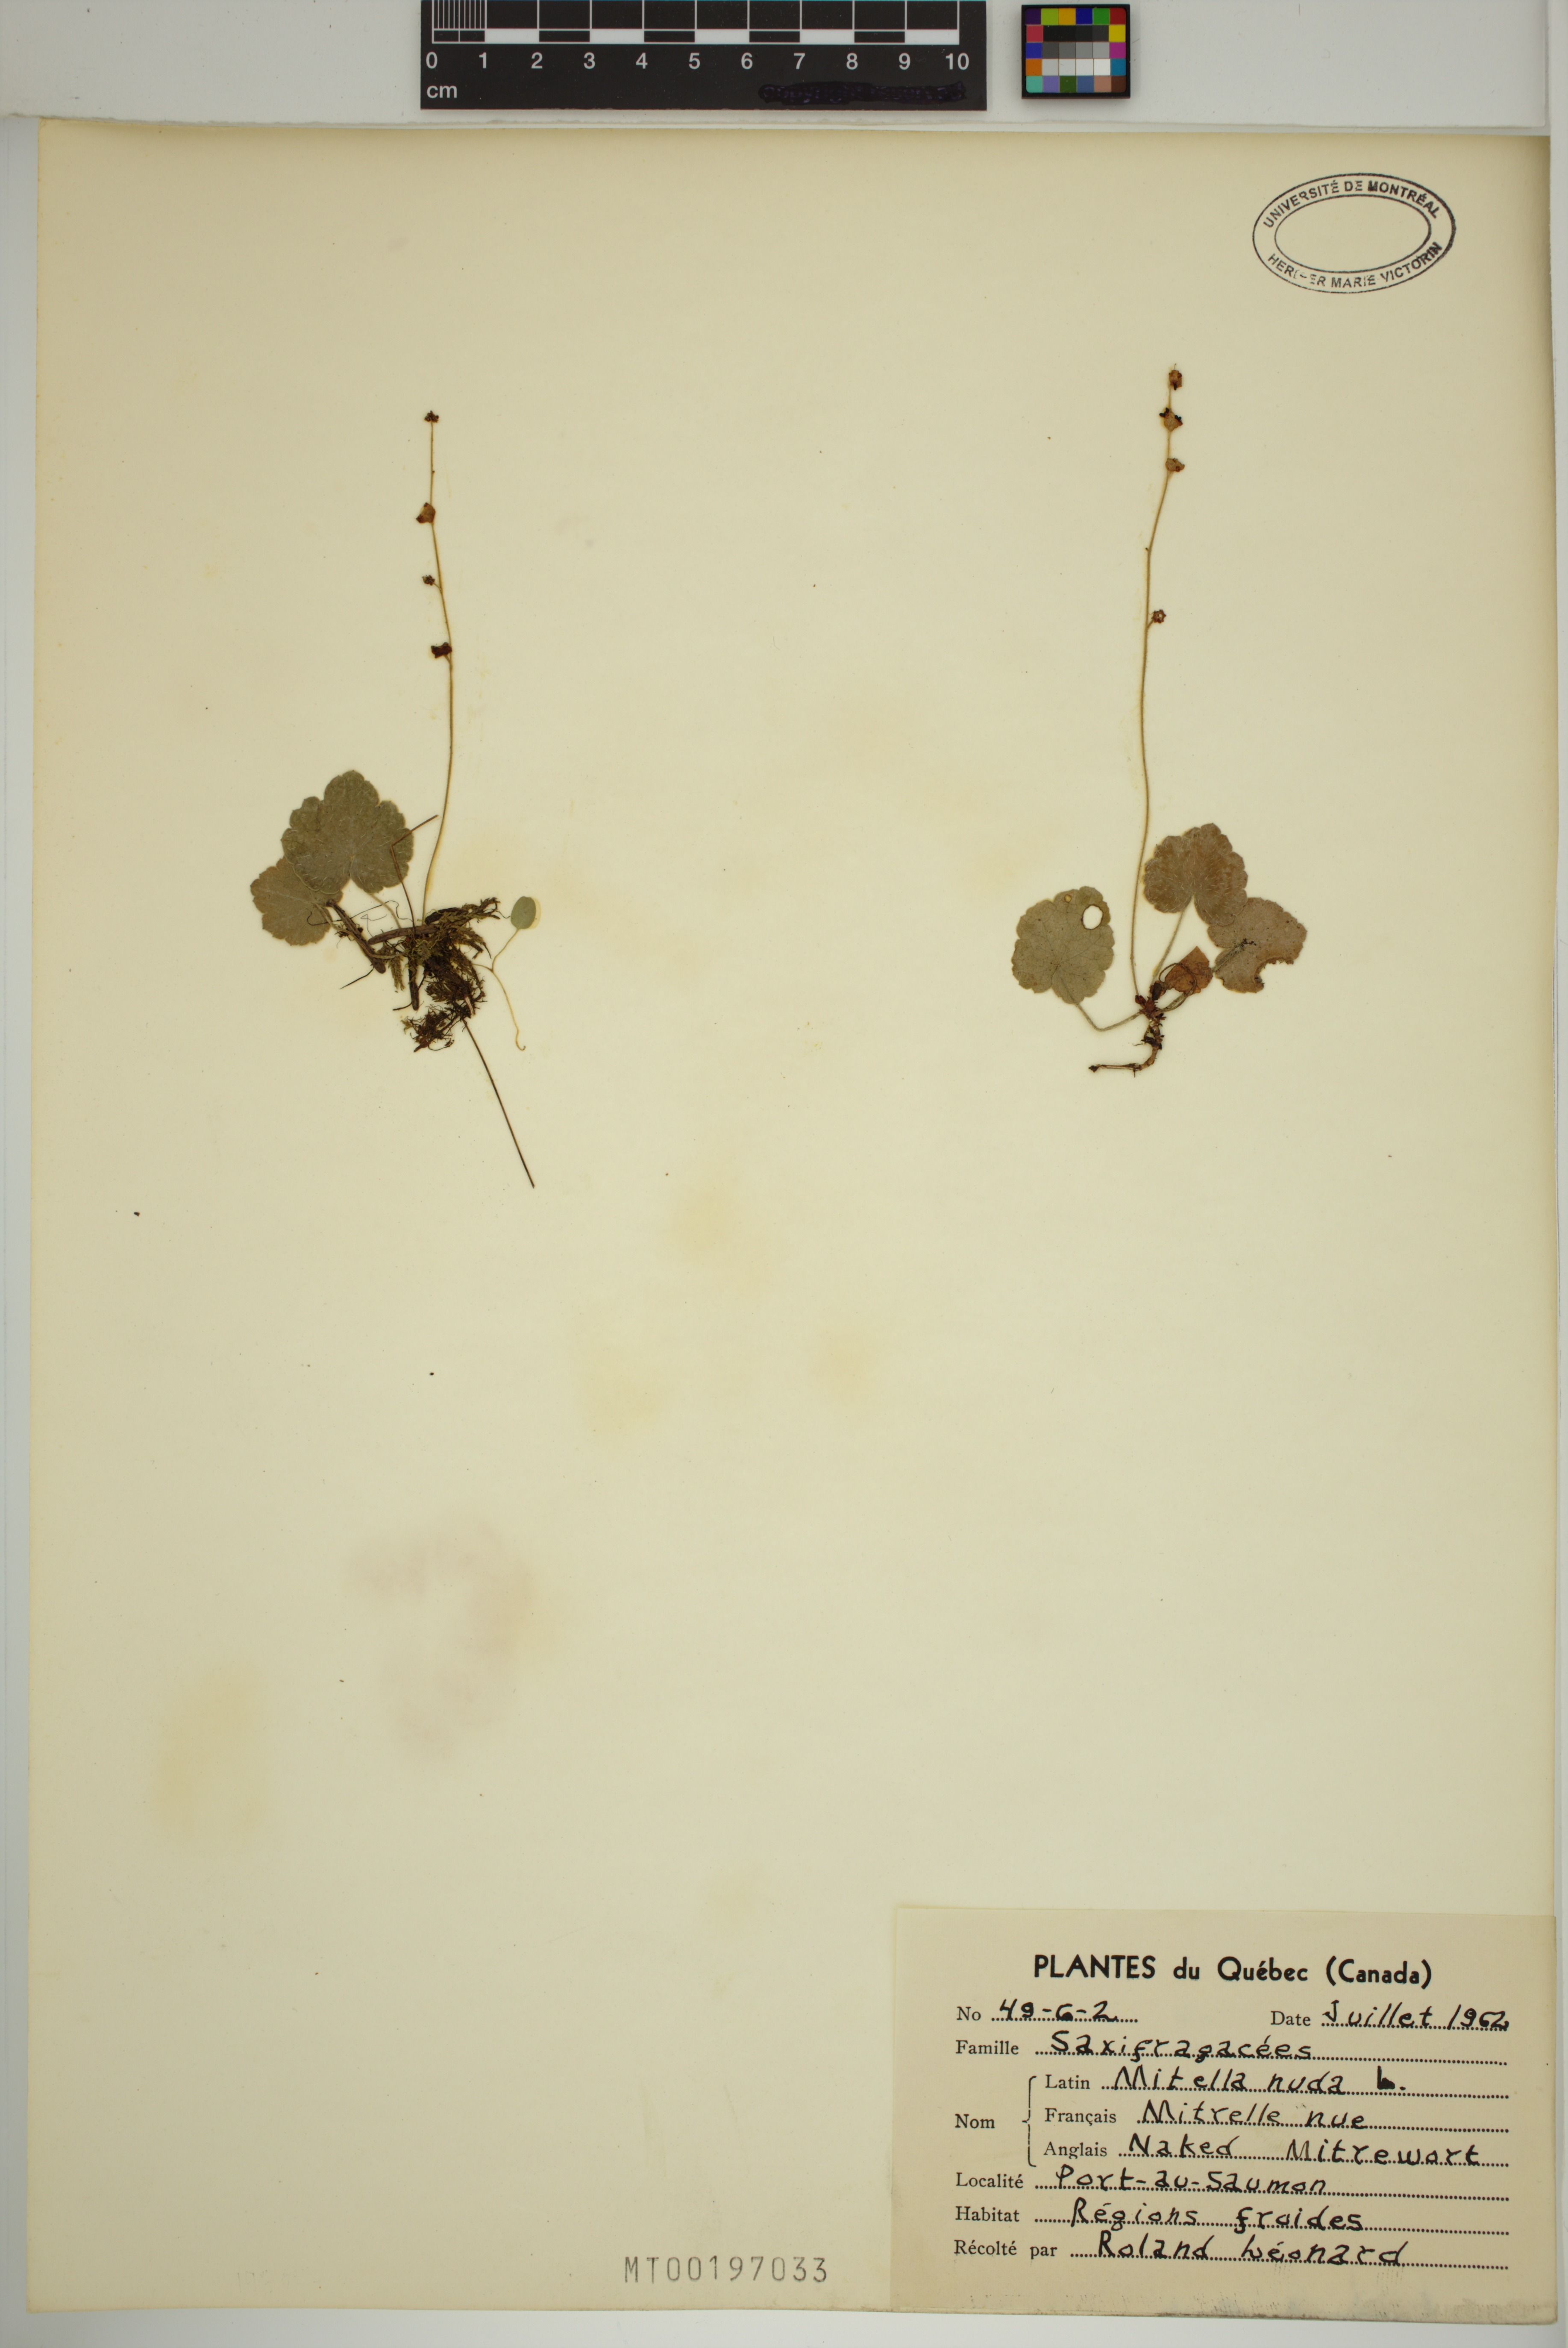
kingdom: Plantae
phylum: Tracheophyta
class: Magnoliopsida
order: Saxifragales
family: Saxifragaceae
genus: Mitella
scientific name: Mitella nuda
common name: Bare-stemmed bishop's-cap
